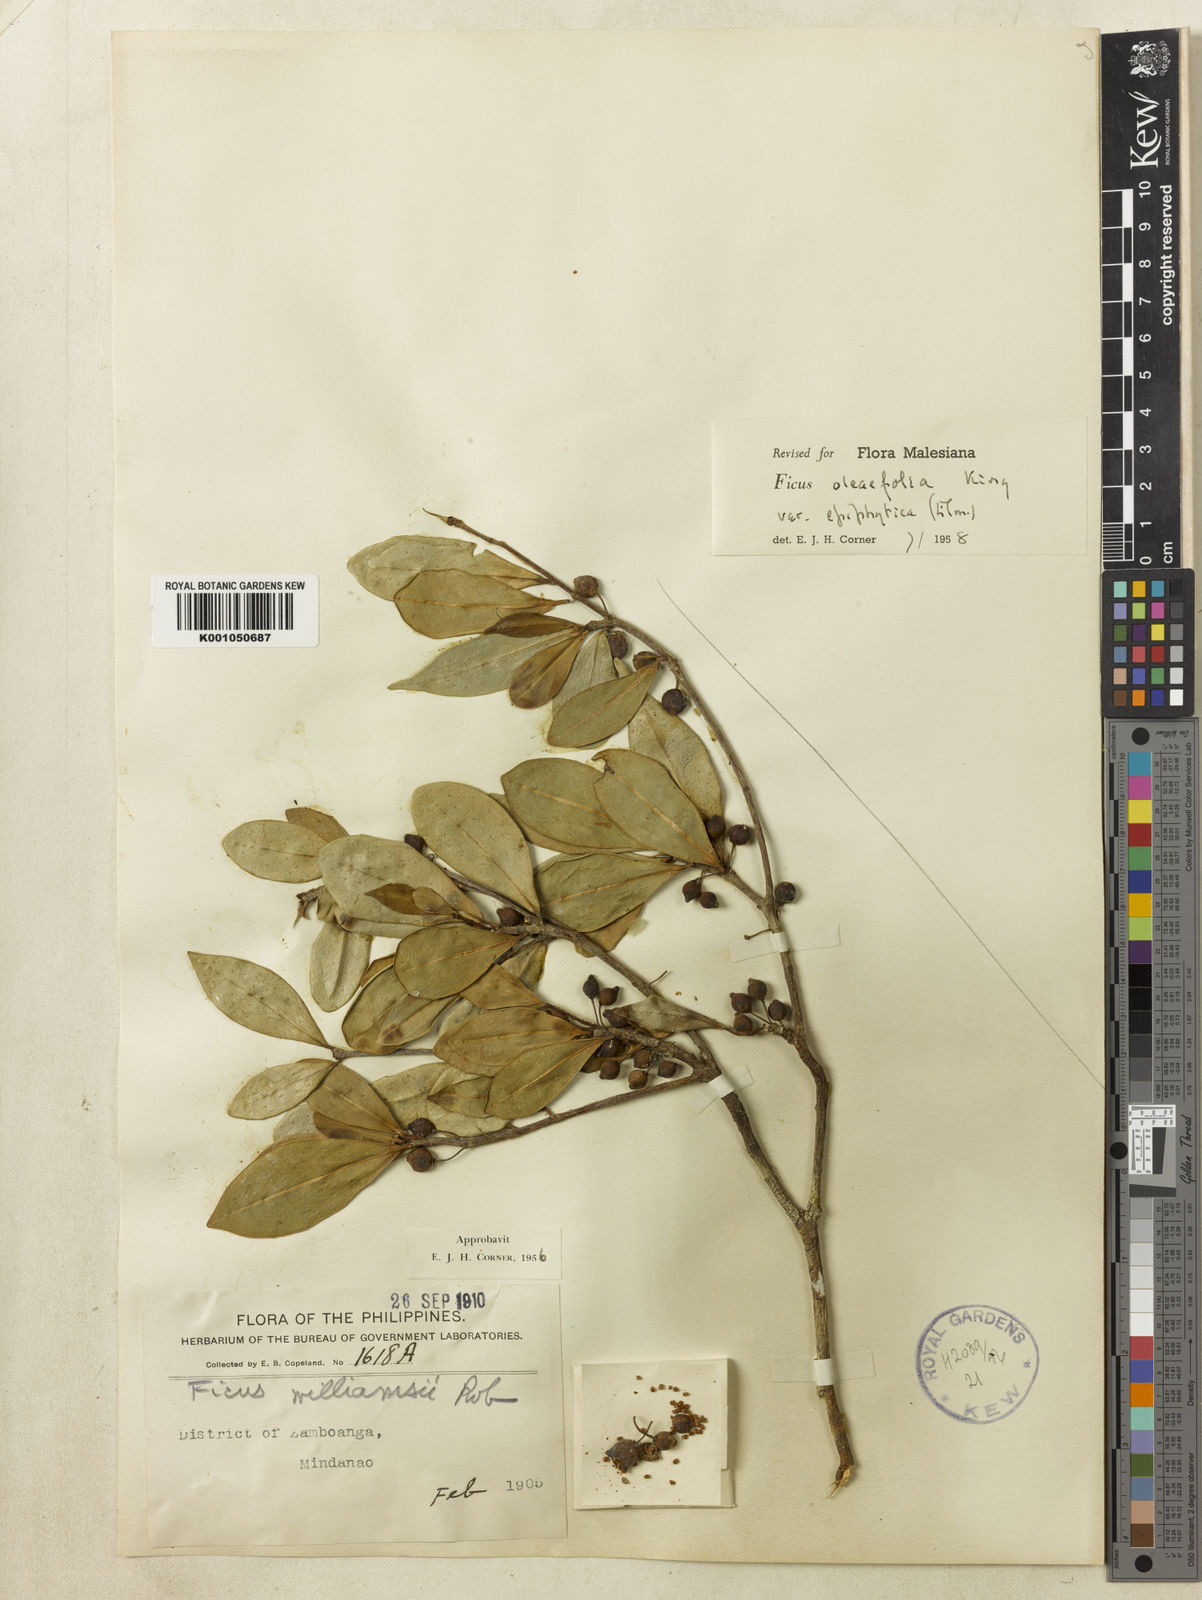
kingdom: Plantae
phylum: Tracheophyta
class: Magnoliopsida
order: Rosales
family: Moraceae
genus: Ficus
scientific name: Ficus oleifolia
